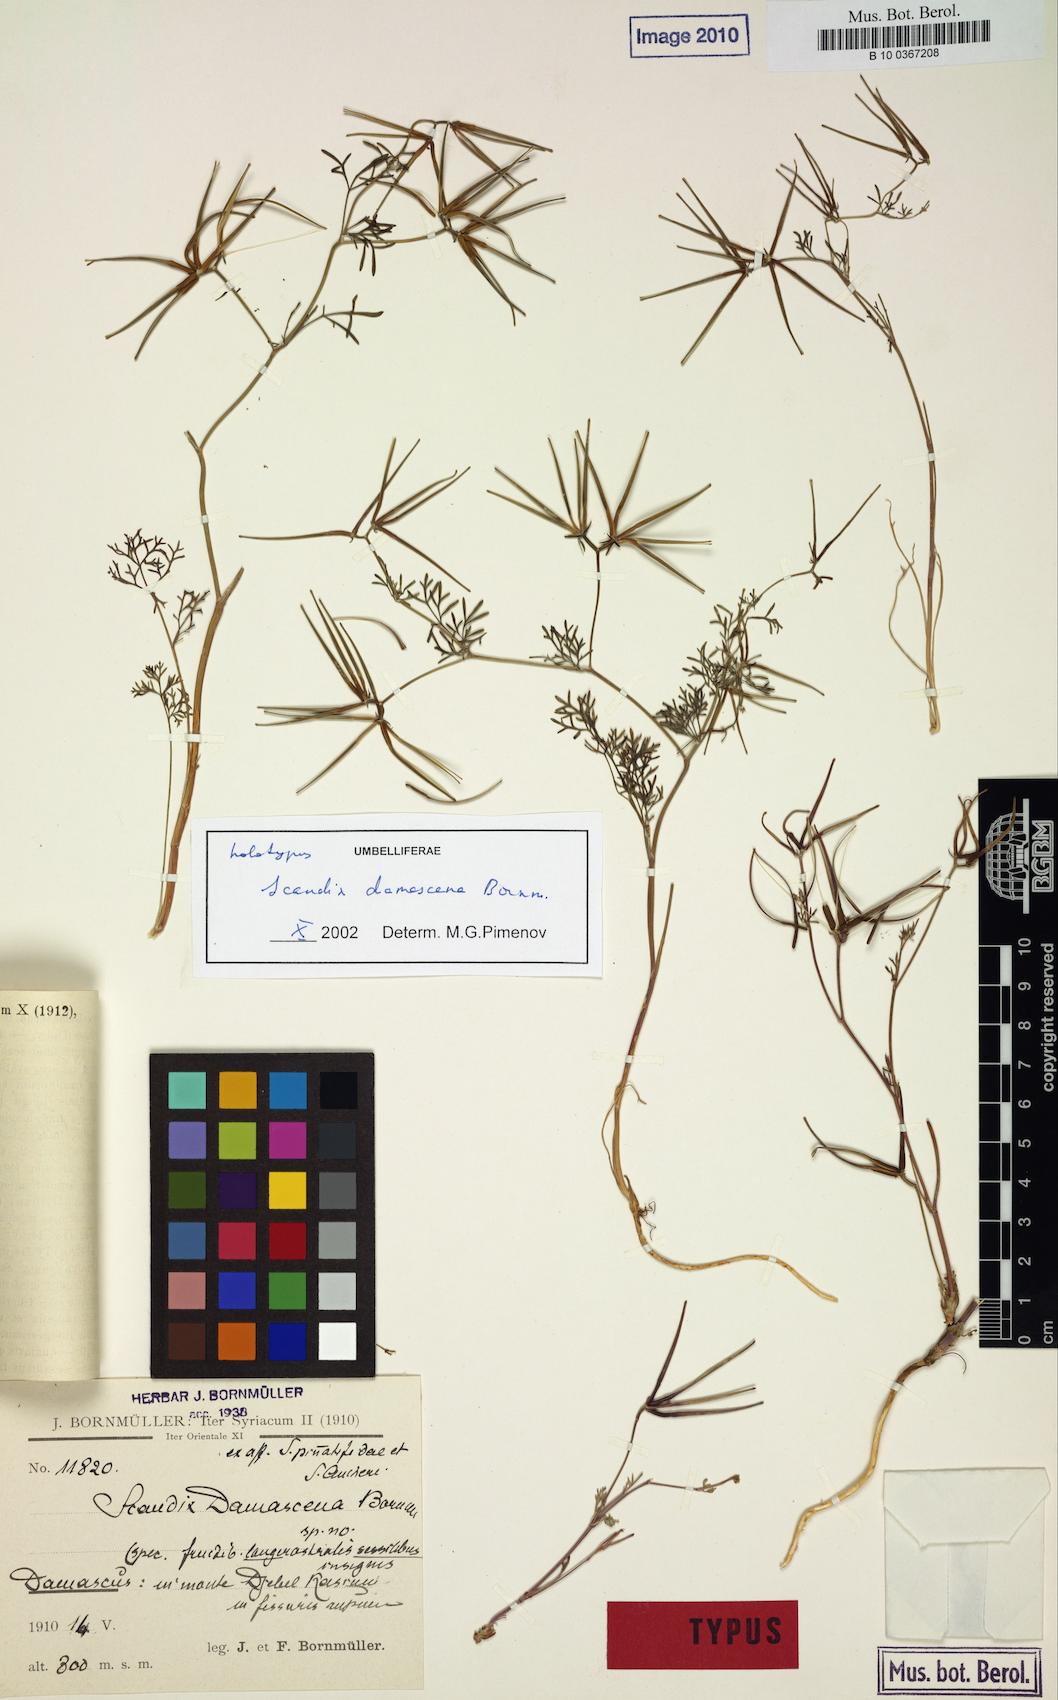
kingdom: Plantae
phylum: Tracheophyta
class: Magnoliopsida
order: Apiales
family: Apiaceae
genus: Scandix
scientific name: Scandix damascena
